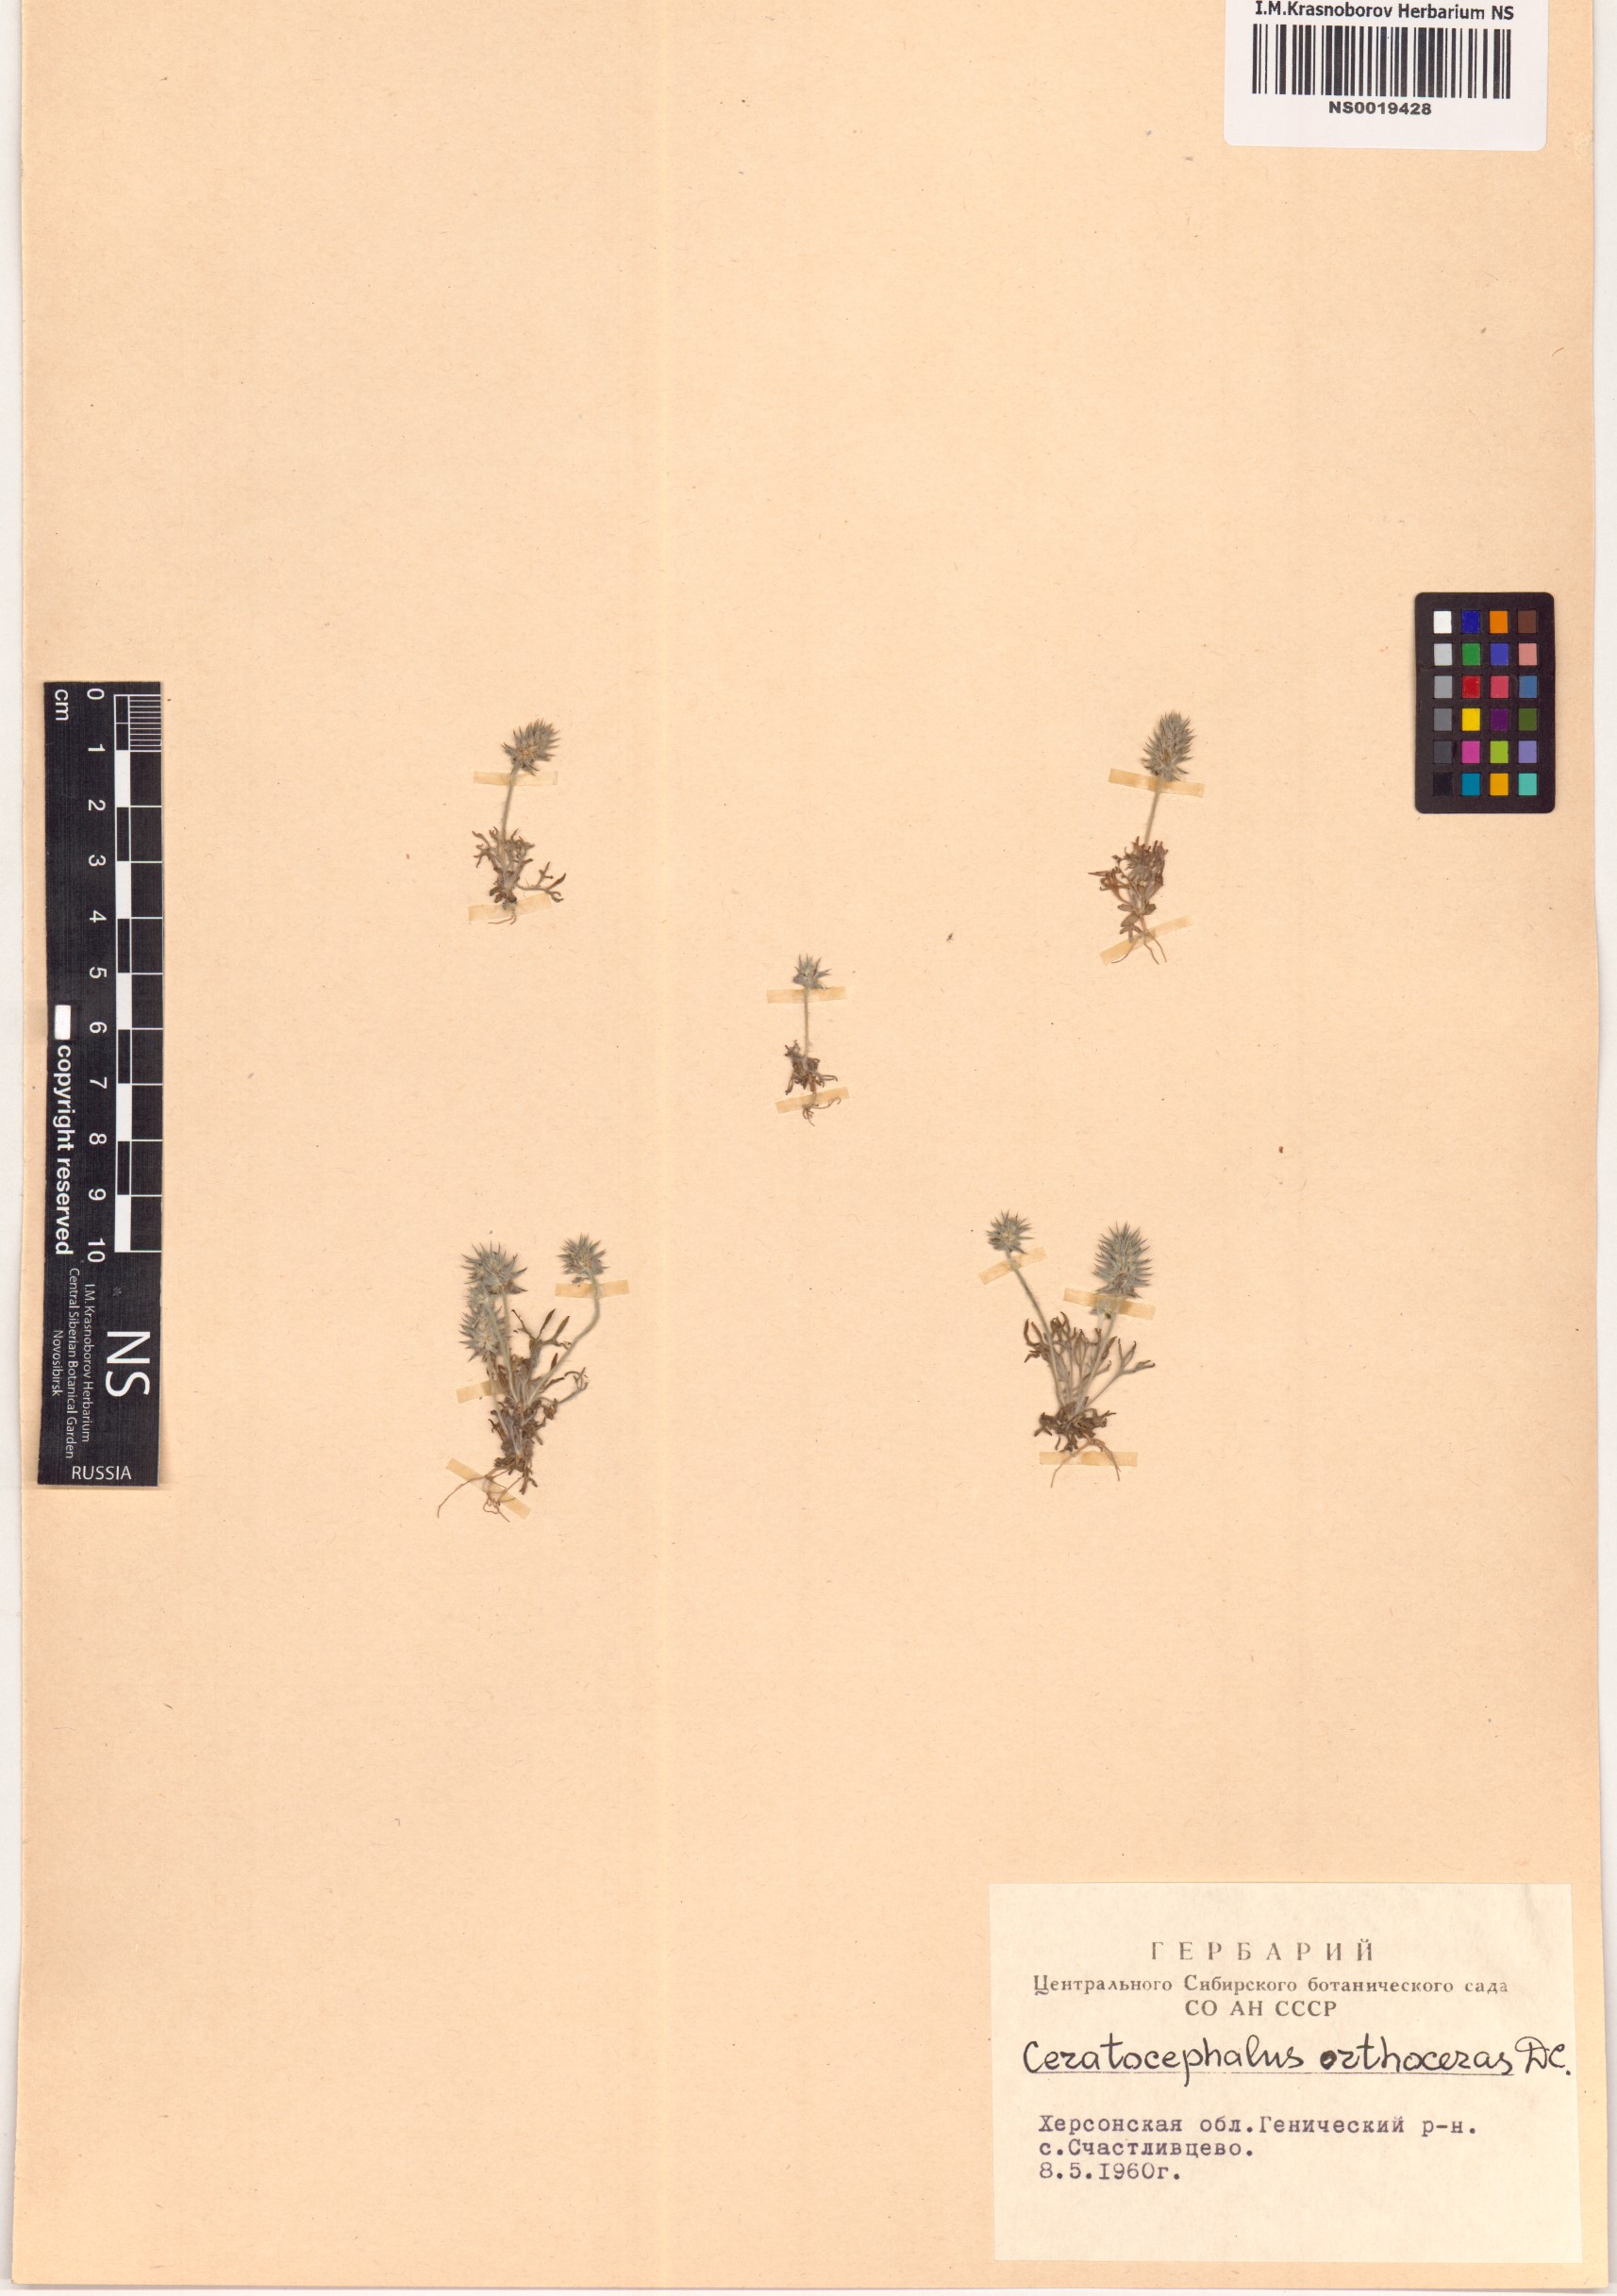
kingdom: Plantae
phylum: Tracheophyta
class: Magnoliopsida
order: Ranunculales
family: Ranunculaceae
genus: Ceratocephala
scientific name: Ceratocephala orthoceras
